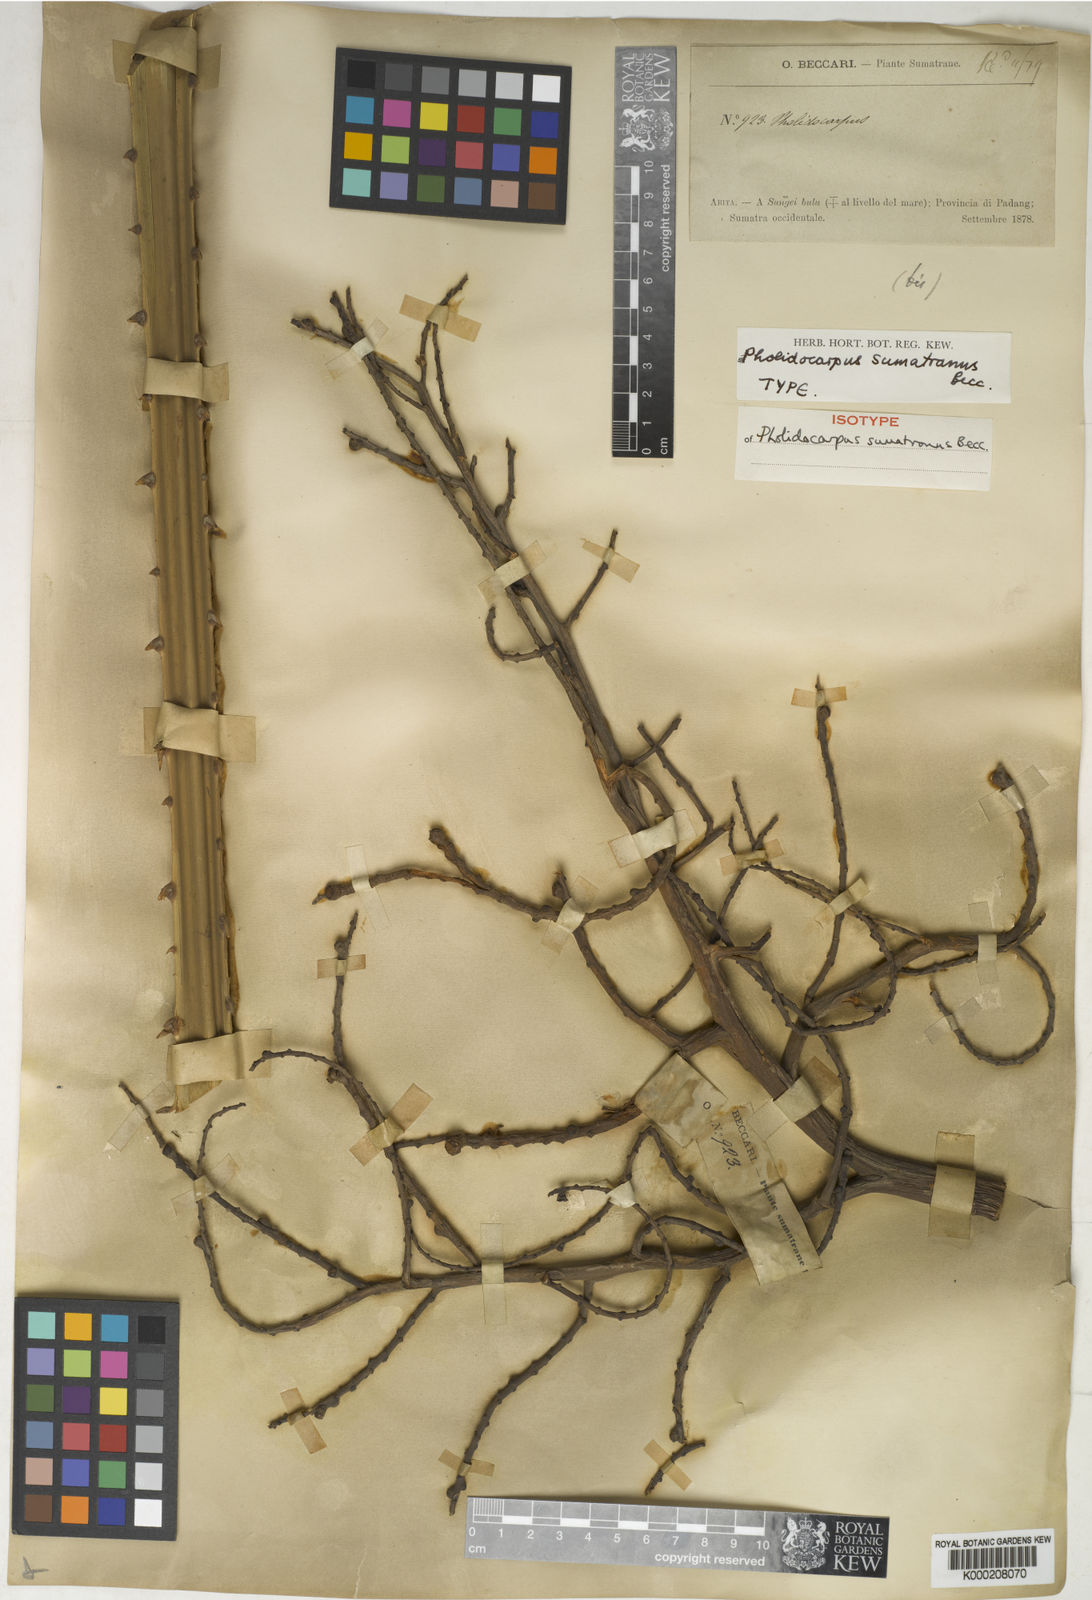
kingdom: Plantae
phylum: Tracheophyta
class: Liliopsida
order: Arecales
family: Arecaceae
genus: Pholidocarpus
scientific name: Pholidocarpus sumatranus
